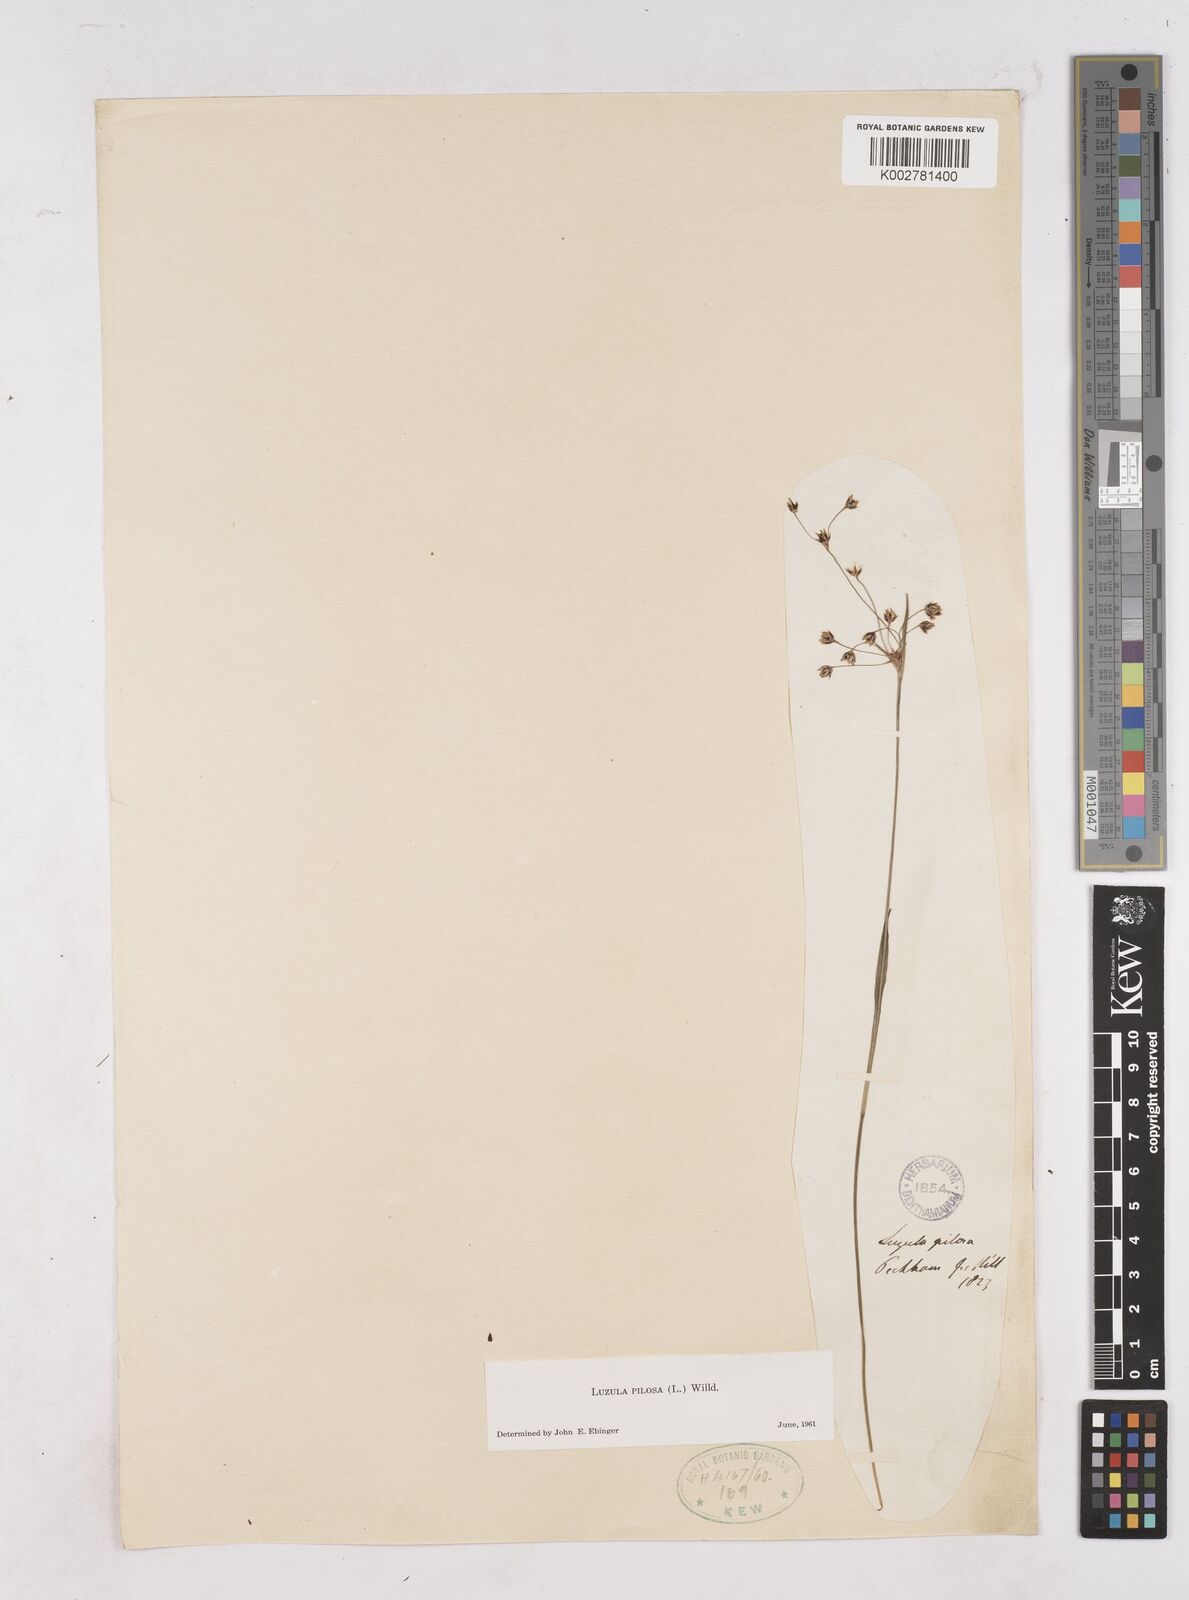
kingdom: Plantae
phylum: Tracheophyta
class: Liliopsida
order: Poales
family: Juncaceae
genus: Luzula
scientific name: Luzula pilosa
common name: Hairy wood-rush
